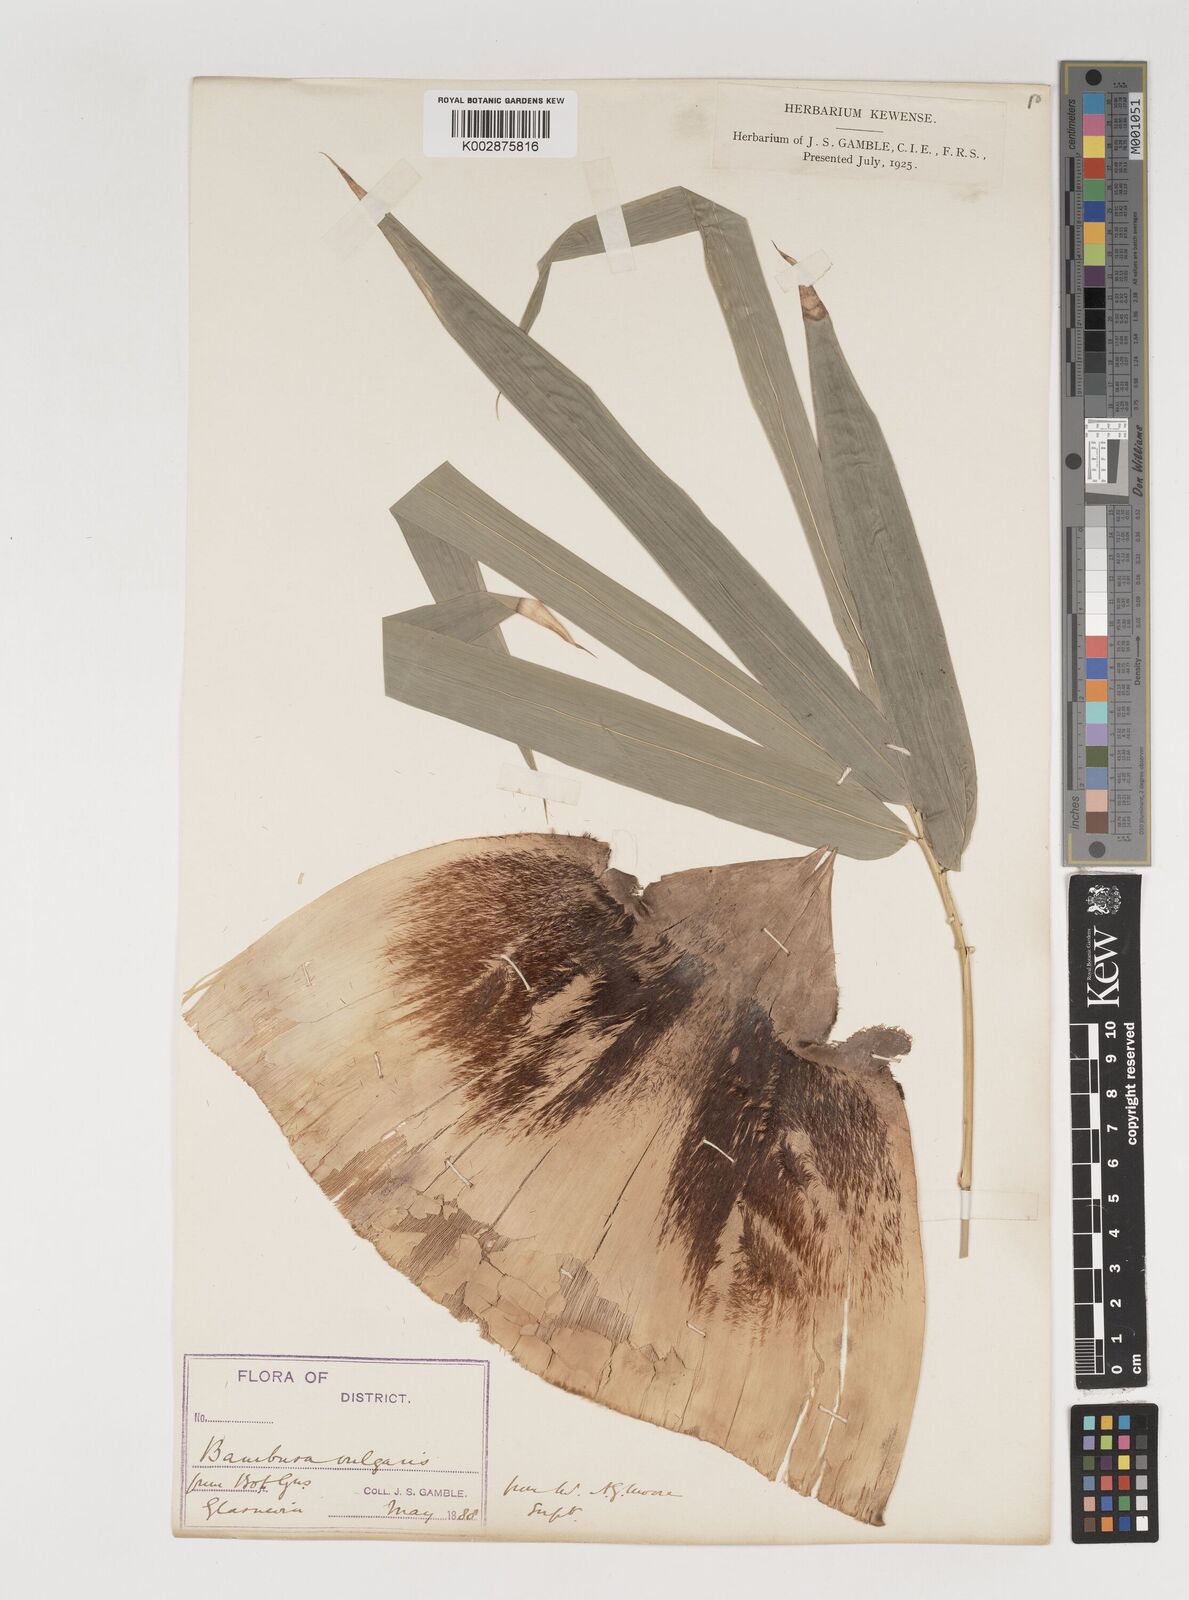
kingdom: Plantae
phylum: Tracheophyta
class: Liliopsida
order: Poales
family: Poaceae
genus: Bambusa
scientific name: Bambusa balcooa
